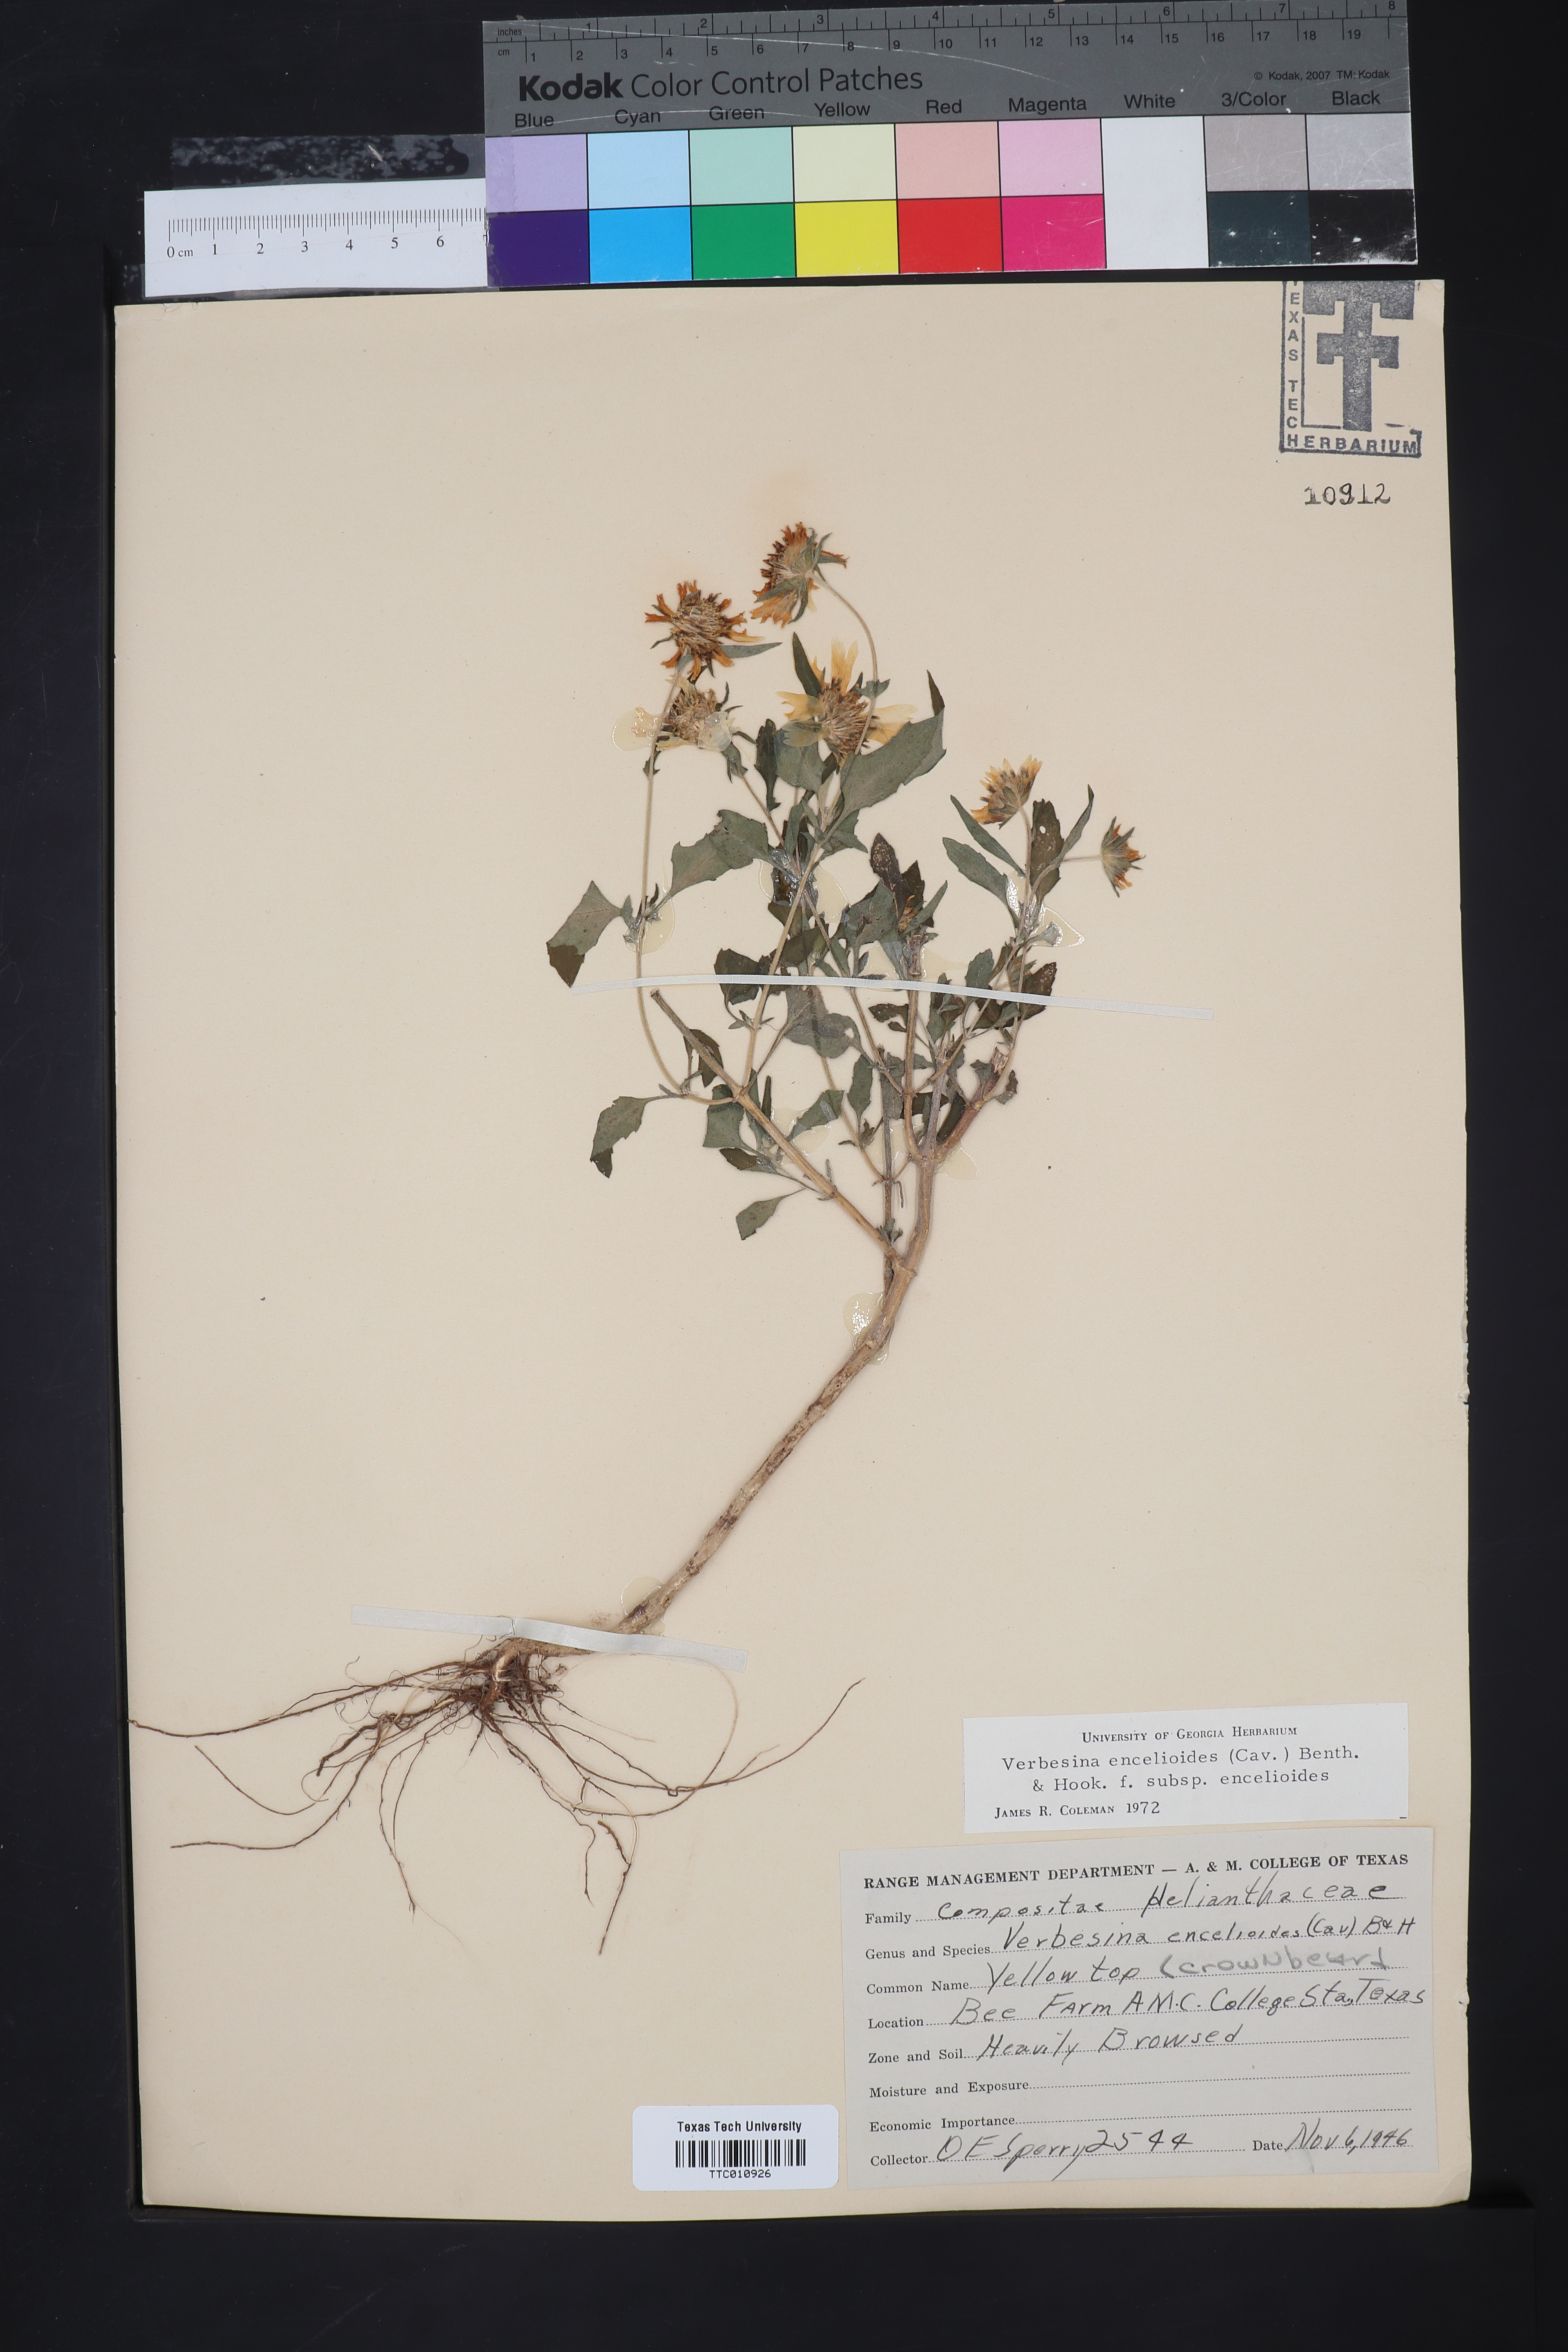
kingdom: Plantae
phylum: Tracheophyta
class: Magnoliopsida
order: Asterales
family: Asteraceae
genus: Verbesina
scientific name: Verbesina encelioides
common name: Golden crownbeard
